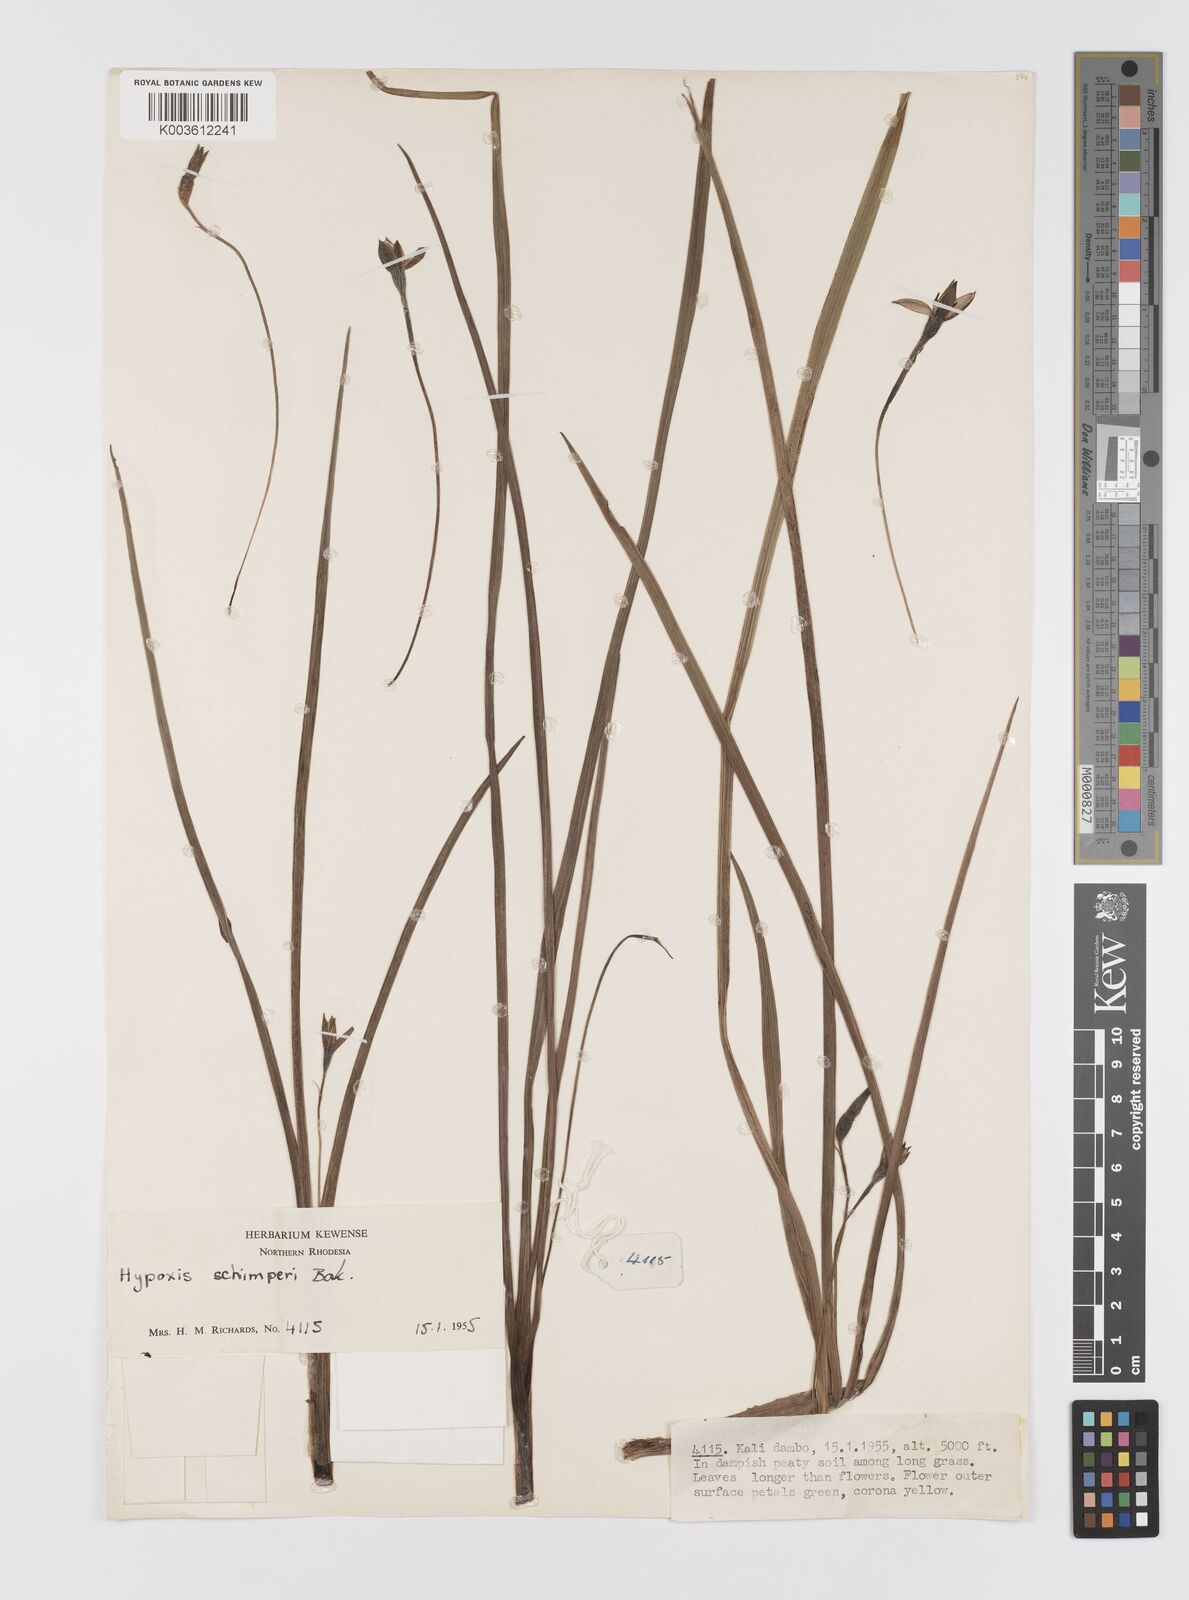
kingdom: Plantae
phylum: Tracheophyta
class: Liliopsida
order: Asparagales
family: Hypoxidaceae
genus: Hypoxis
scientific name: Hypoxis cuanzensis
